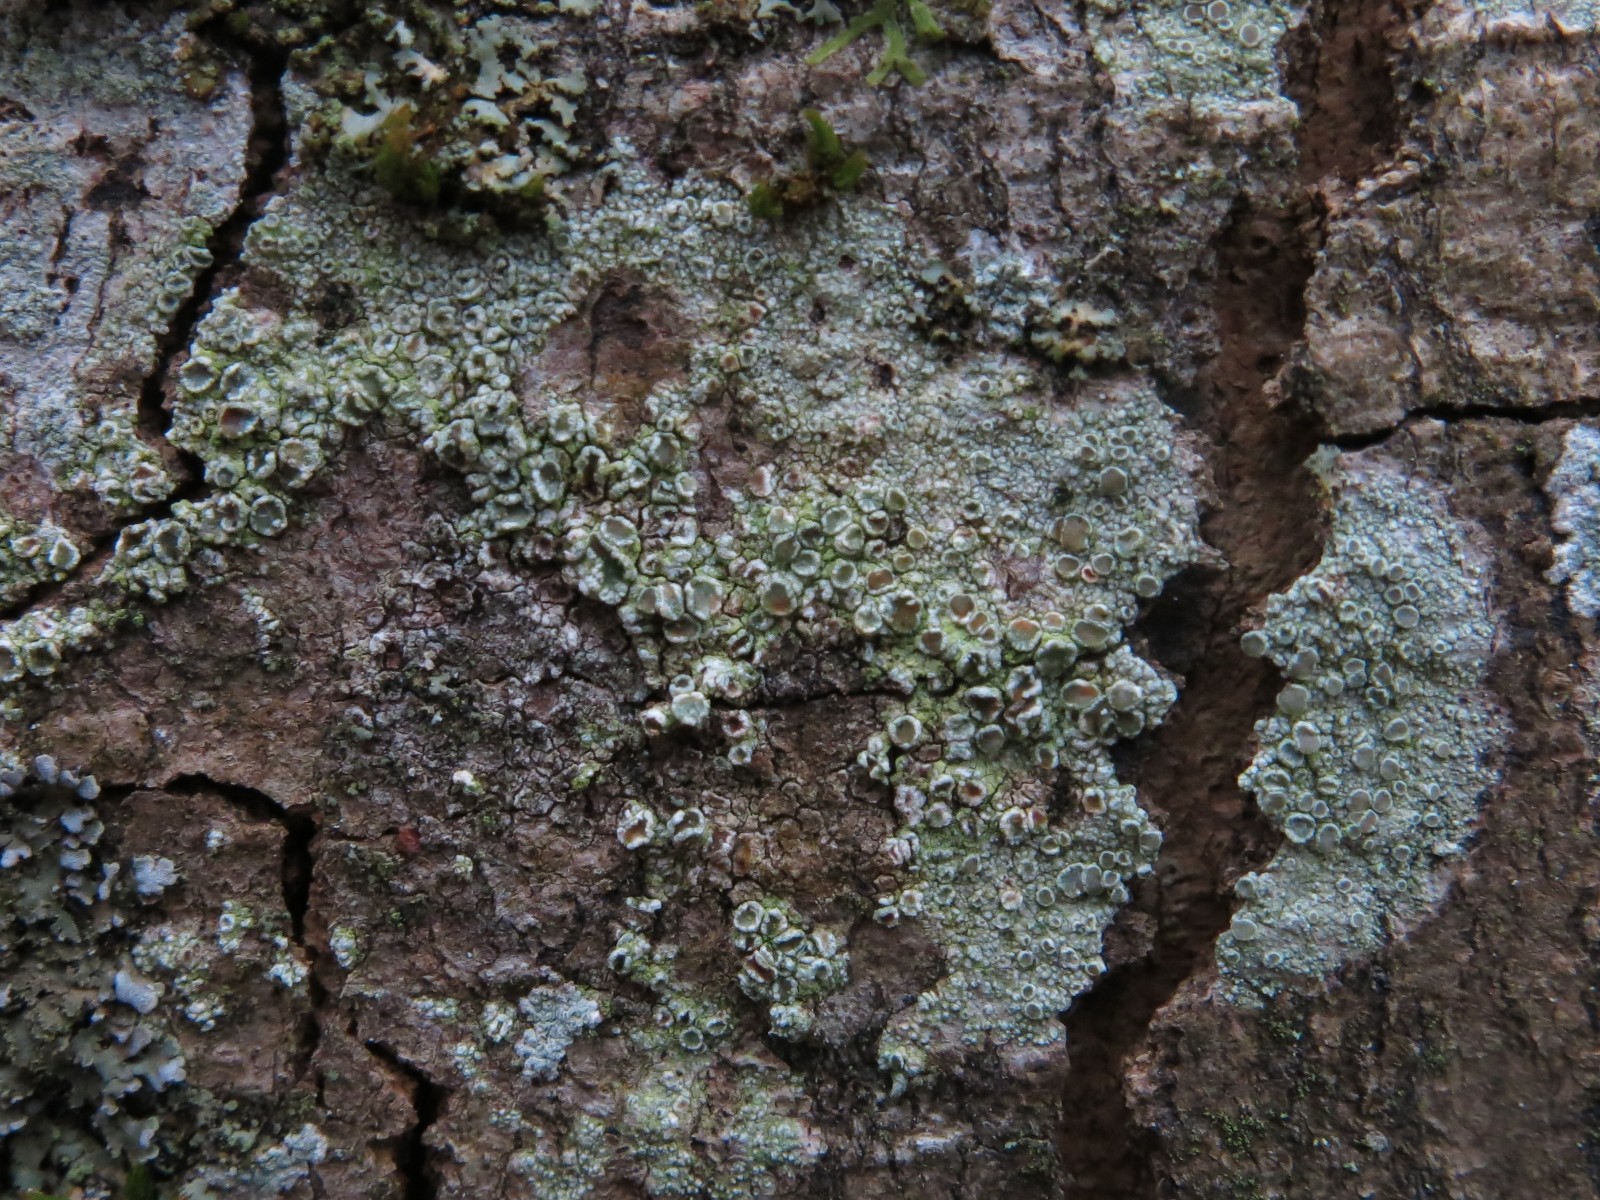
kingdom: Fungi
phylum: Ascomycota
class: Lecanoromycetes
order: Lecanorales
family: Lecanoraceae
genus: Straminella
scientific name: Straminella conizaeoides
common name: by-kantskivelav
